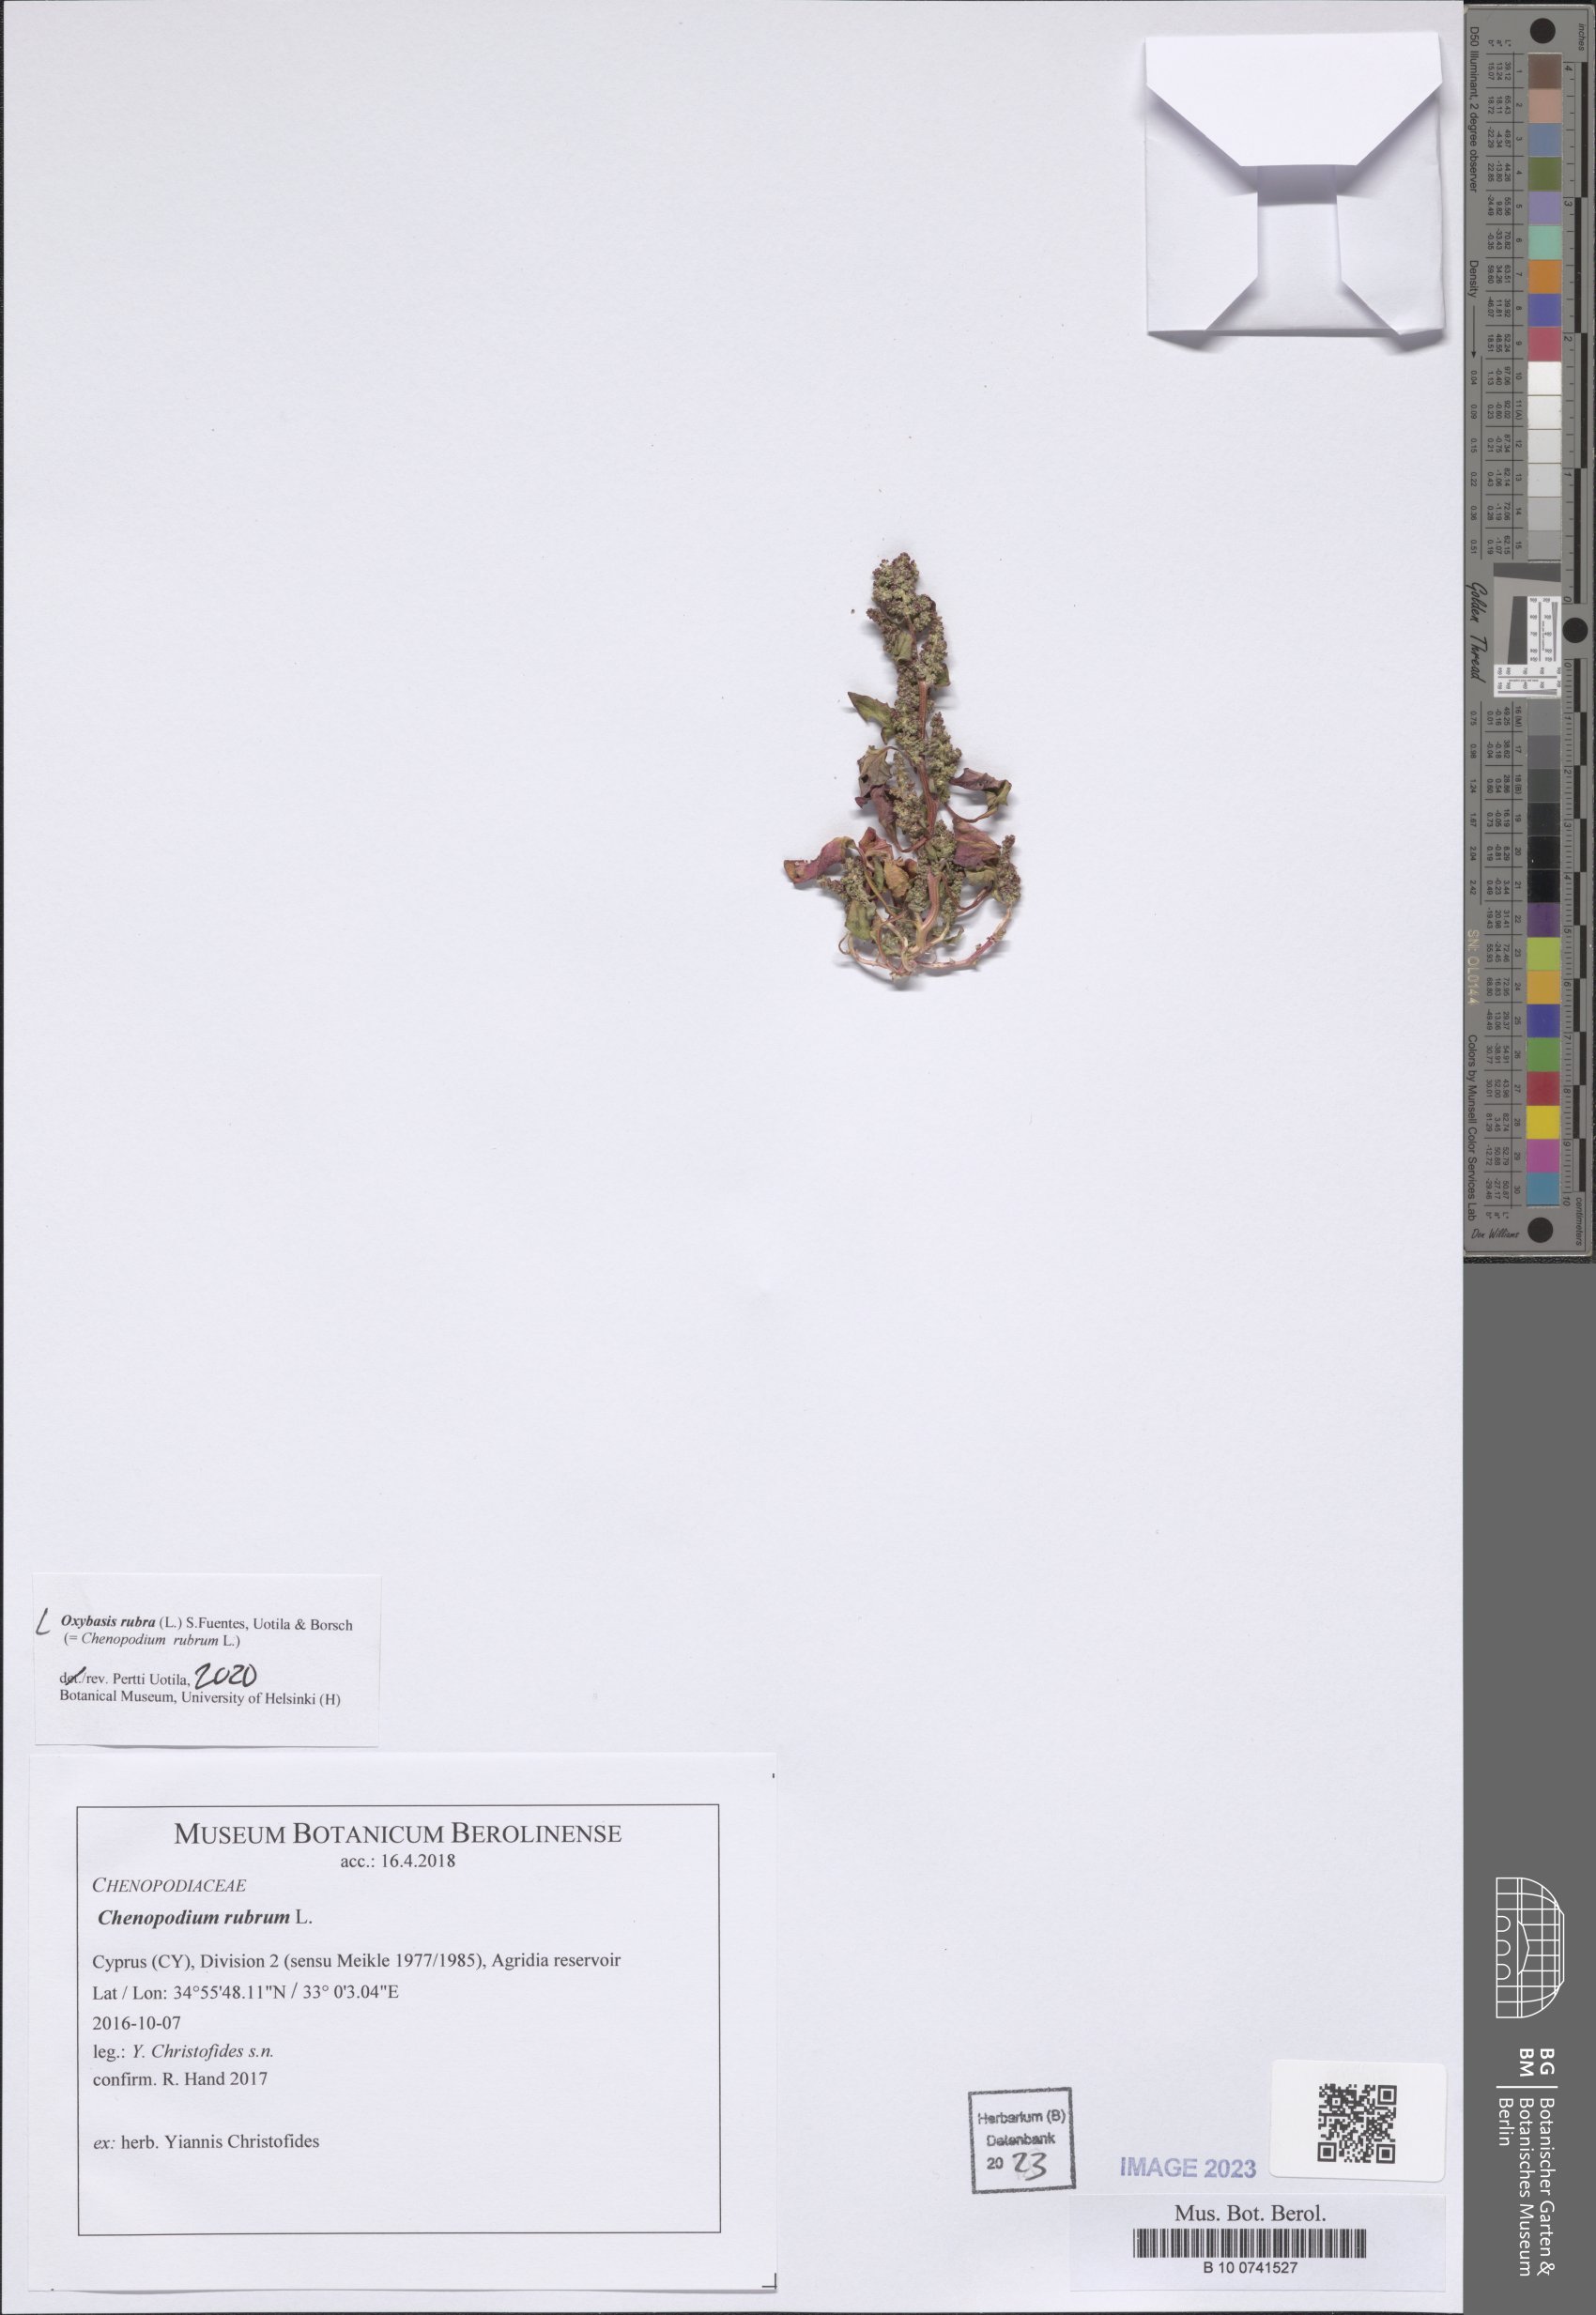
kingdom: Plantae
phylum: Tracheophyta
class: Magnoliopsida
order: Caryophyllales
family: Amaranthaceae
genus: Oxybasis
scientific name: Oxybasis rubra
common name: Red goosefoot
